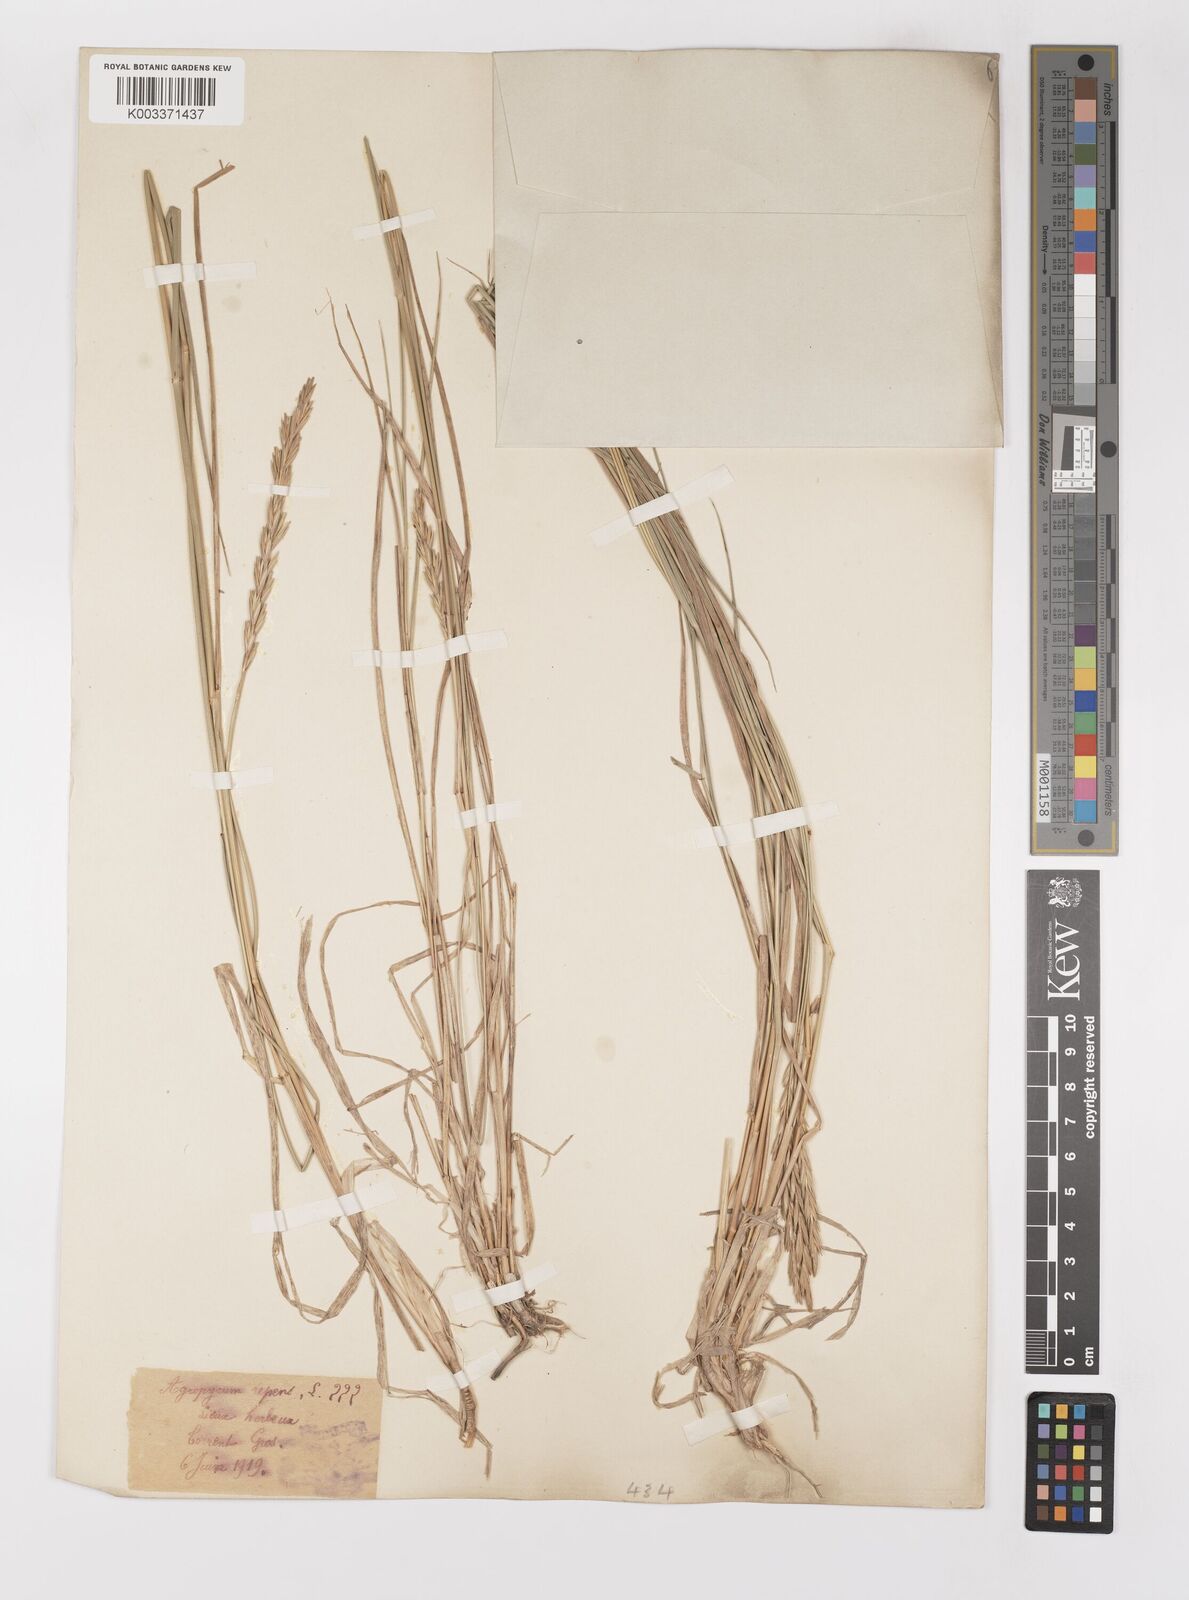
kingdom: Plantae
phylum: Tracheophyta
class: Liliopsida
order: Poales
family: Poaceae
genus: Elymus
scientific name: Elymus repens
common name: Quackgrass
